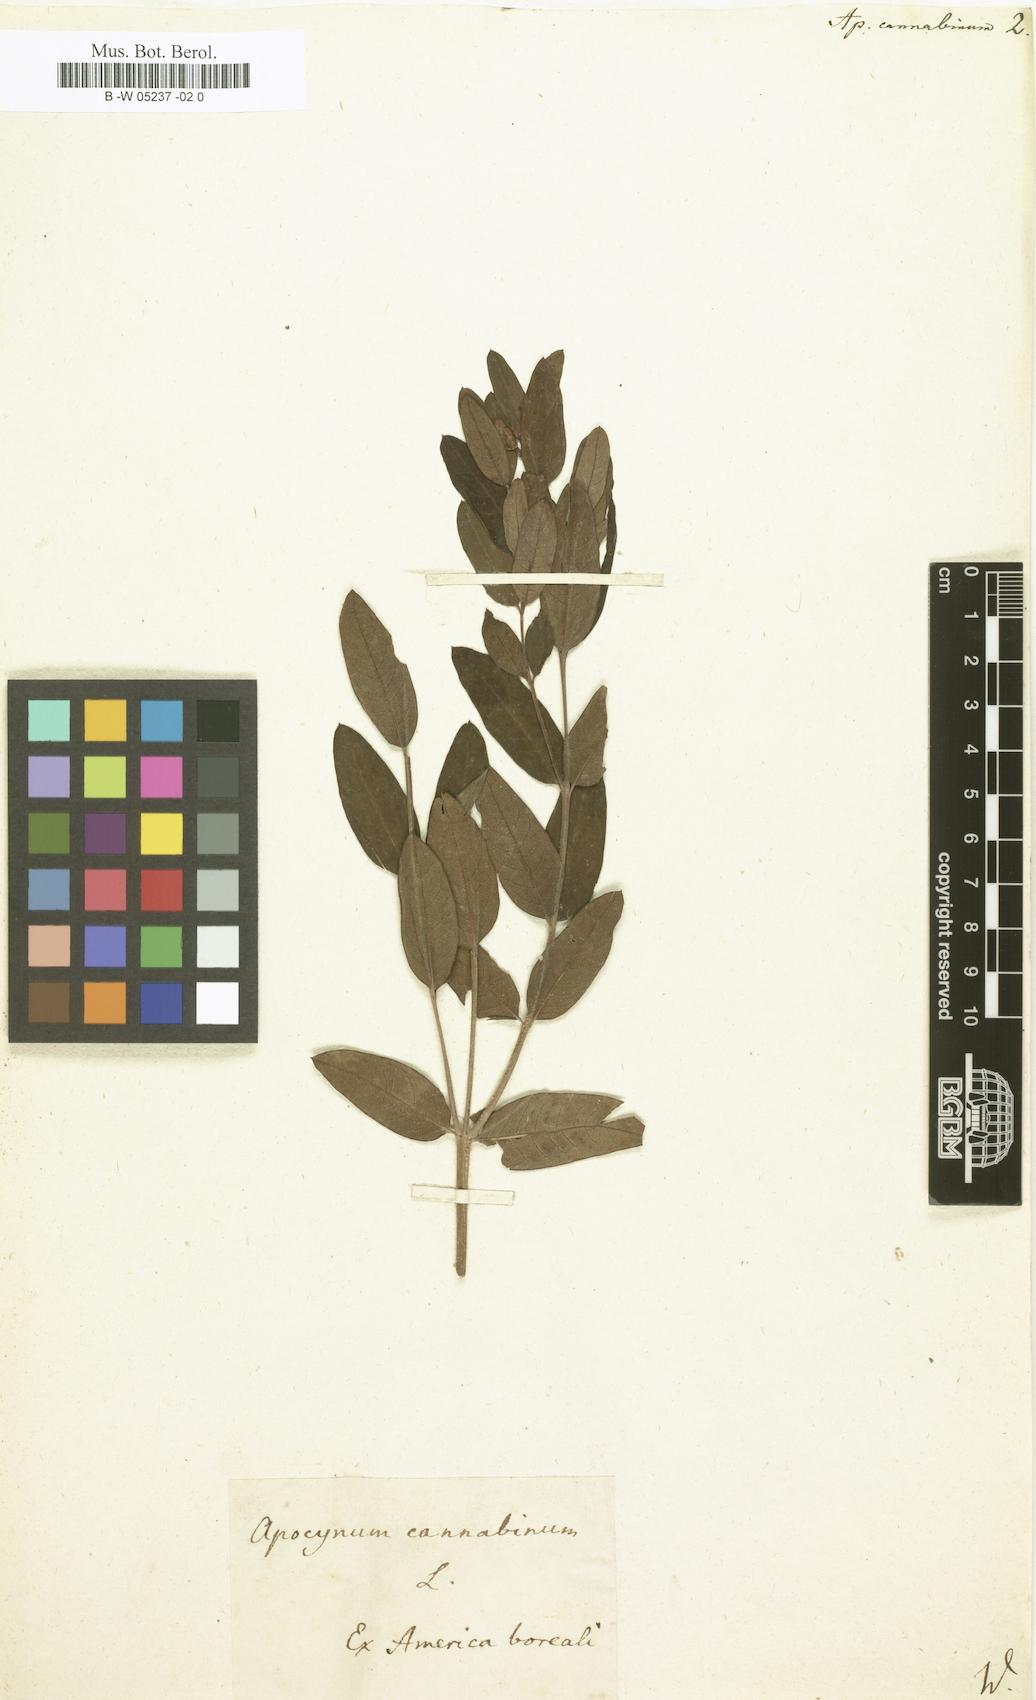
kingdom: Plantae
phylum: Tracheophyta
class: Magnoliopsida
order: Gentianales
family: Apocynaceae
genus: Apocynum
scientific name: Apocynum cannabinum
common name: Hemp dogbane
